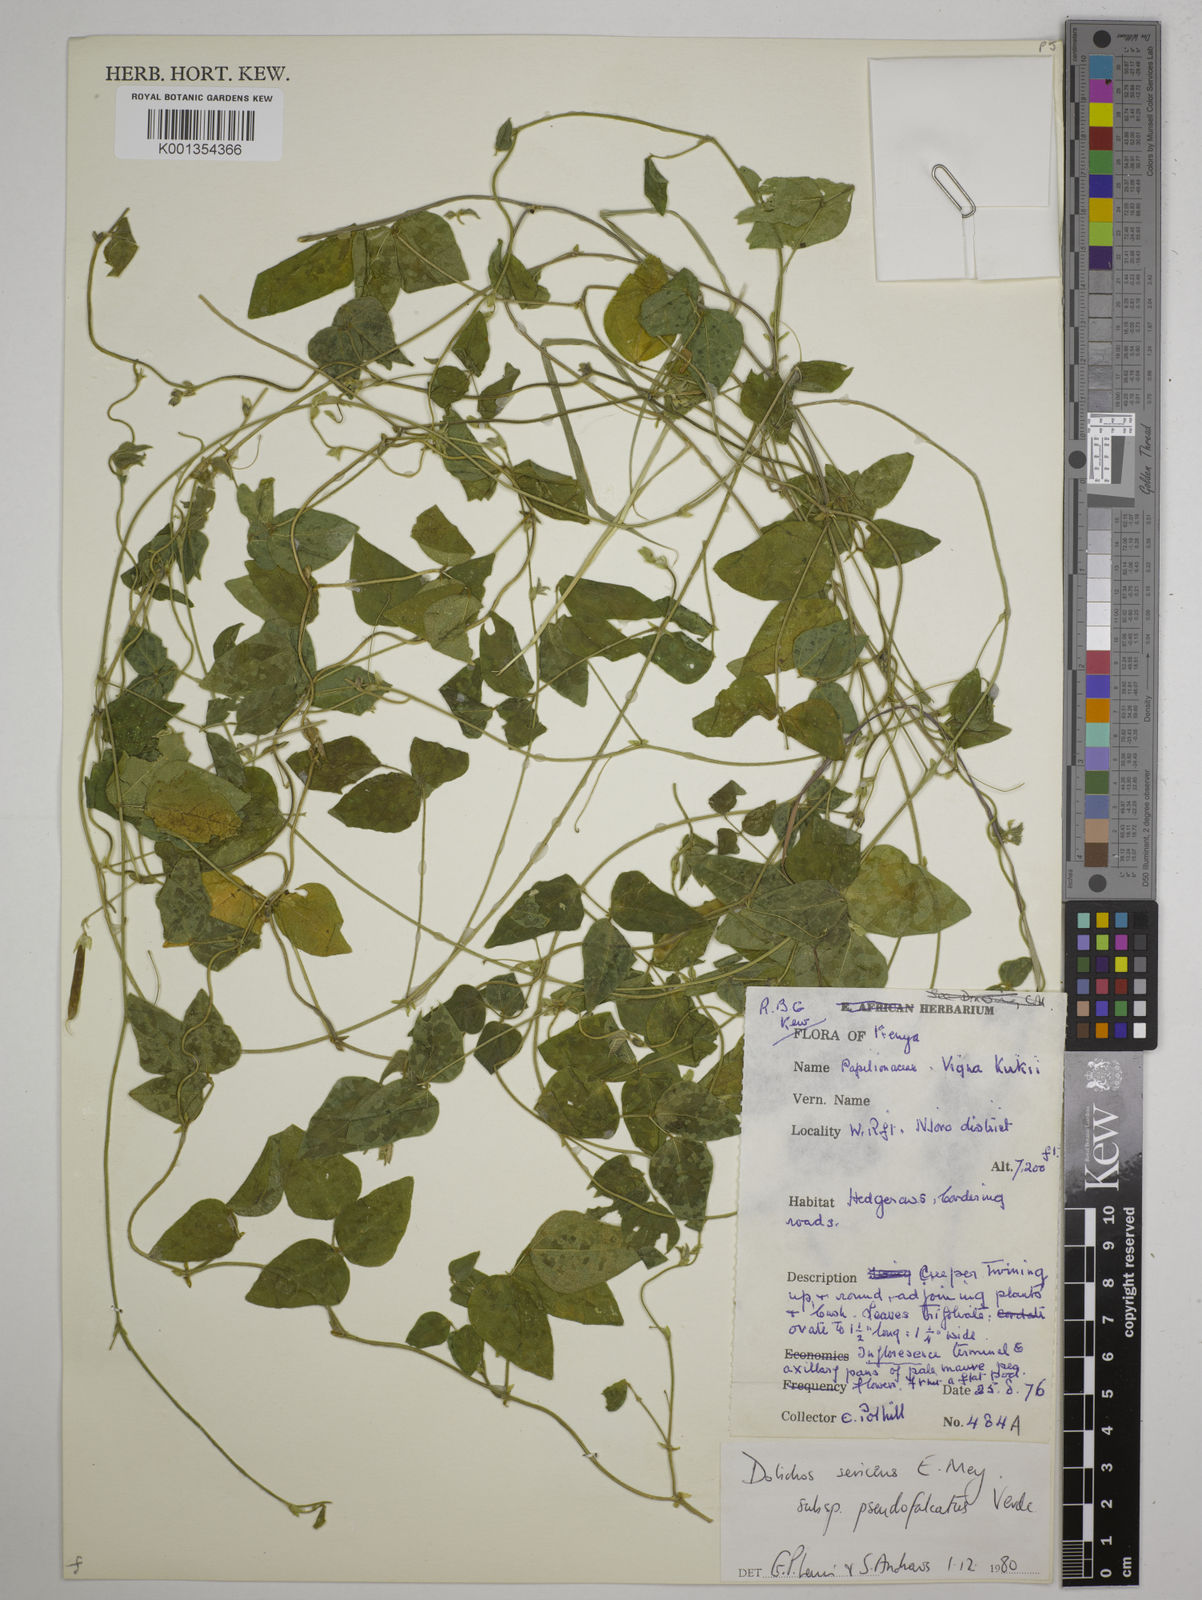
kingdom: Plantae
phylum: Tracheophyta
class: Magnoliopsida
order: Fabales
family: Fabaceae
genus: Dolichos
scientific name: Dolichos
